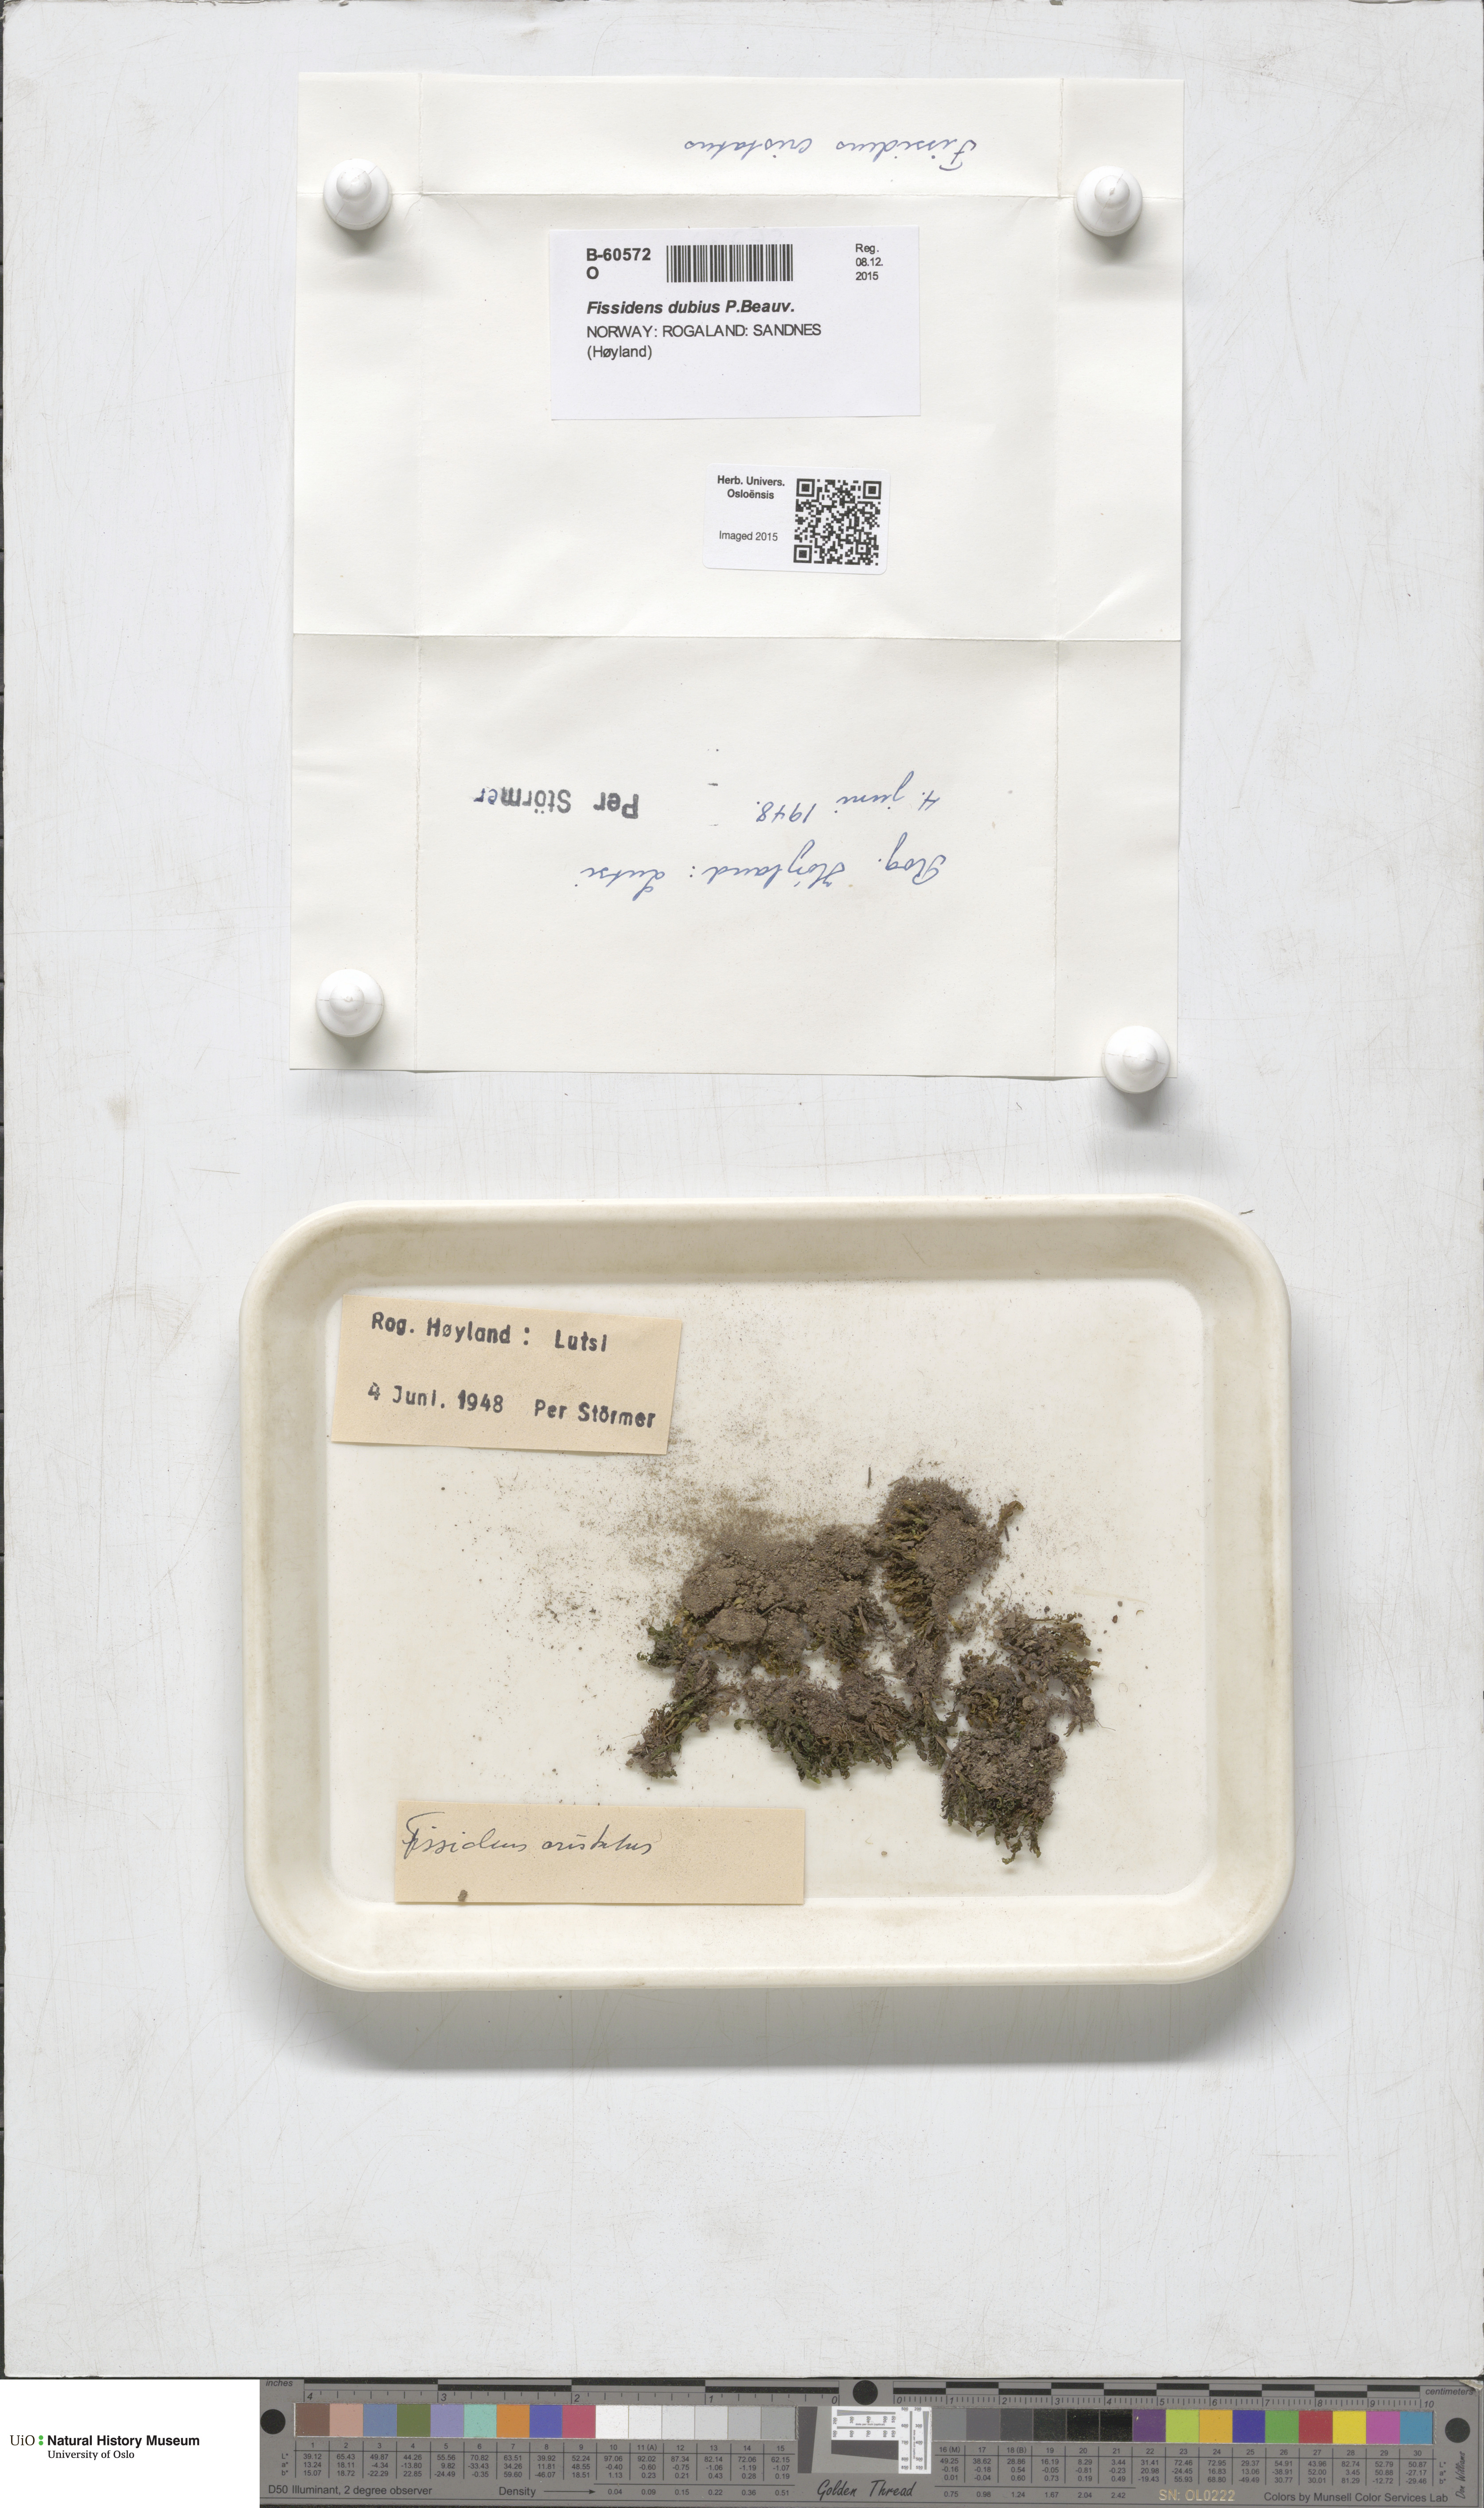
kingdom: Plantae
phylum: Bryophyta
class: Bryopsida
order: Dicranales
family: Fissidentaceae
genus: Fissidens
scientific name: Fissidens dubius
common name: Rock pocket moss
